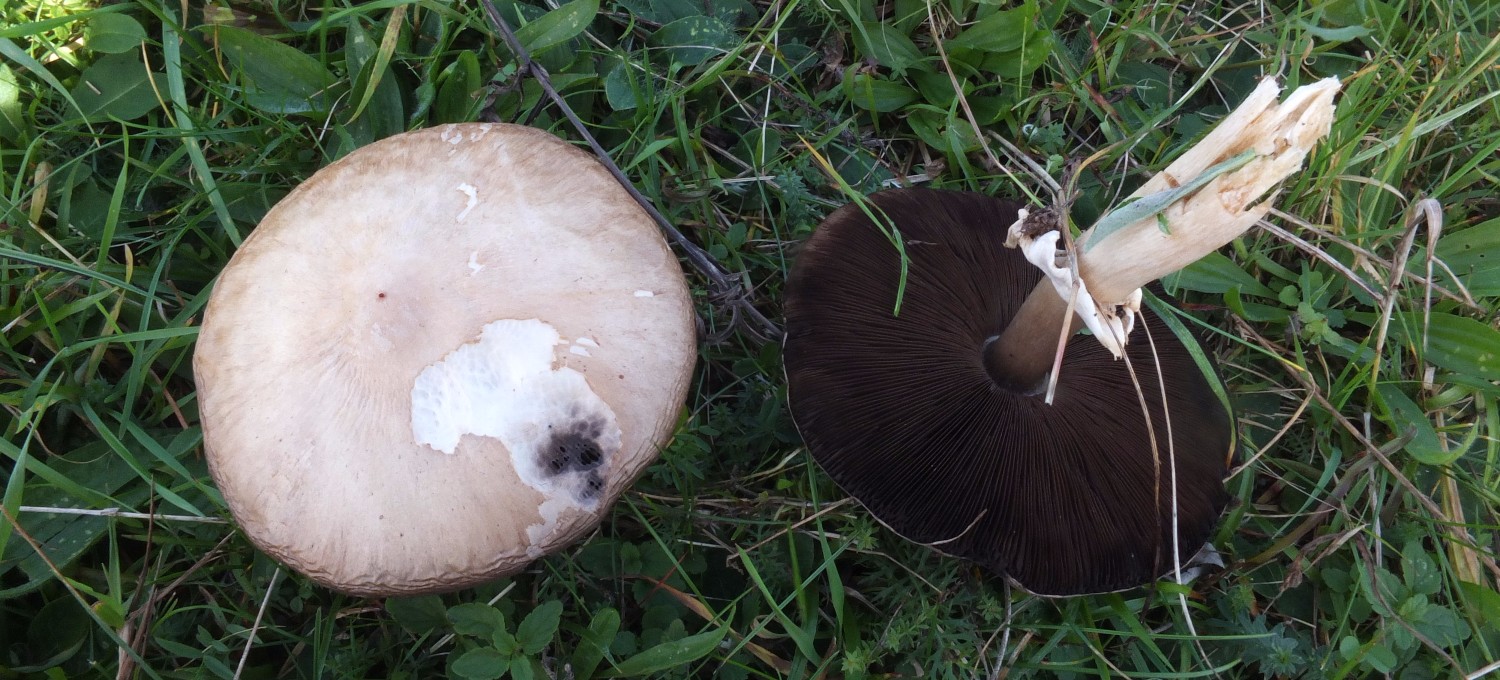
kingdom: Fungi
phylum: Basidiomycota
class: Agaricomycetes
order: Agaricales
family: Agaricaceae
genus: Agaricus
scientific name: Agaricus campestris
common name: mark-champignon
